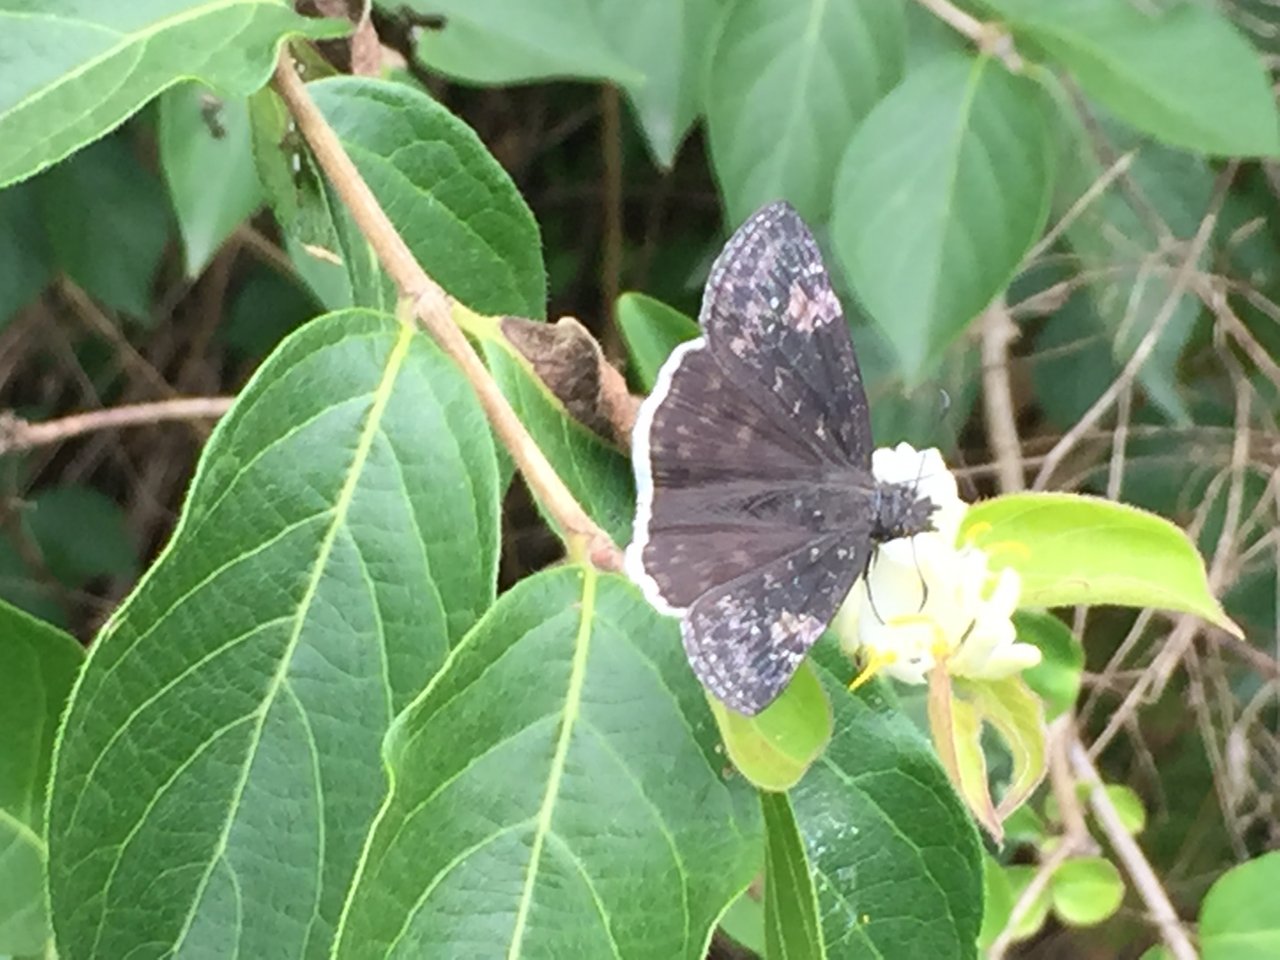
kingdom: Animalia
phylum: Arthropoda
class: Insecta
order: Lepidoptera
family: Hesperiidae
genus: Erynnis
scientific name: Erynnis funeralis
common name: Funereal Duskywing
